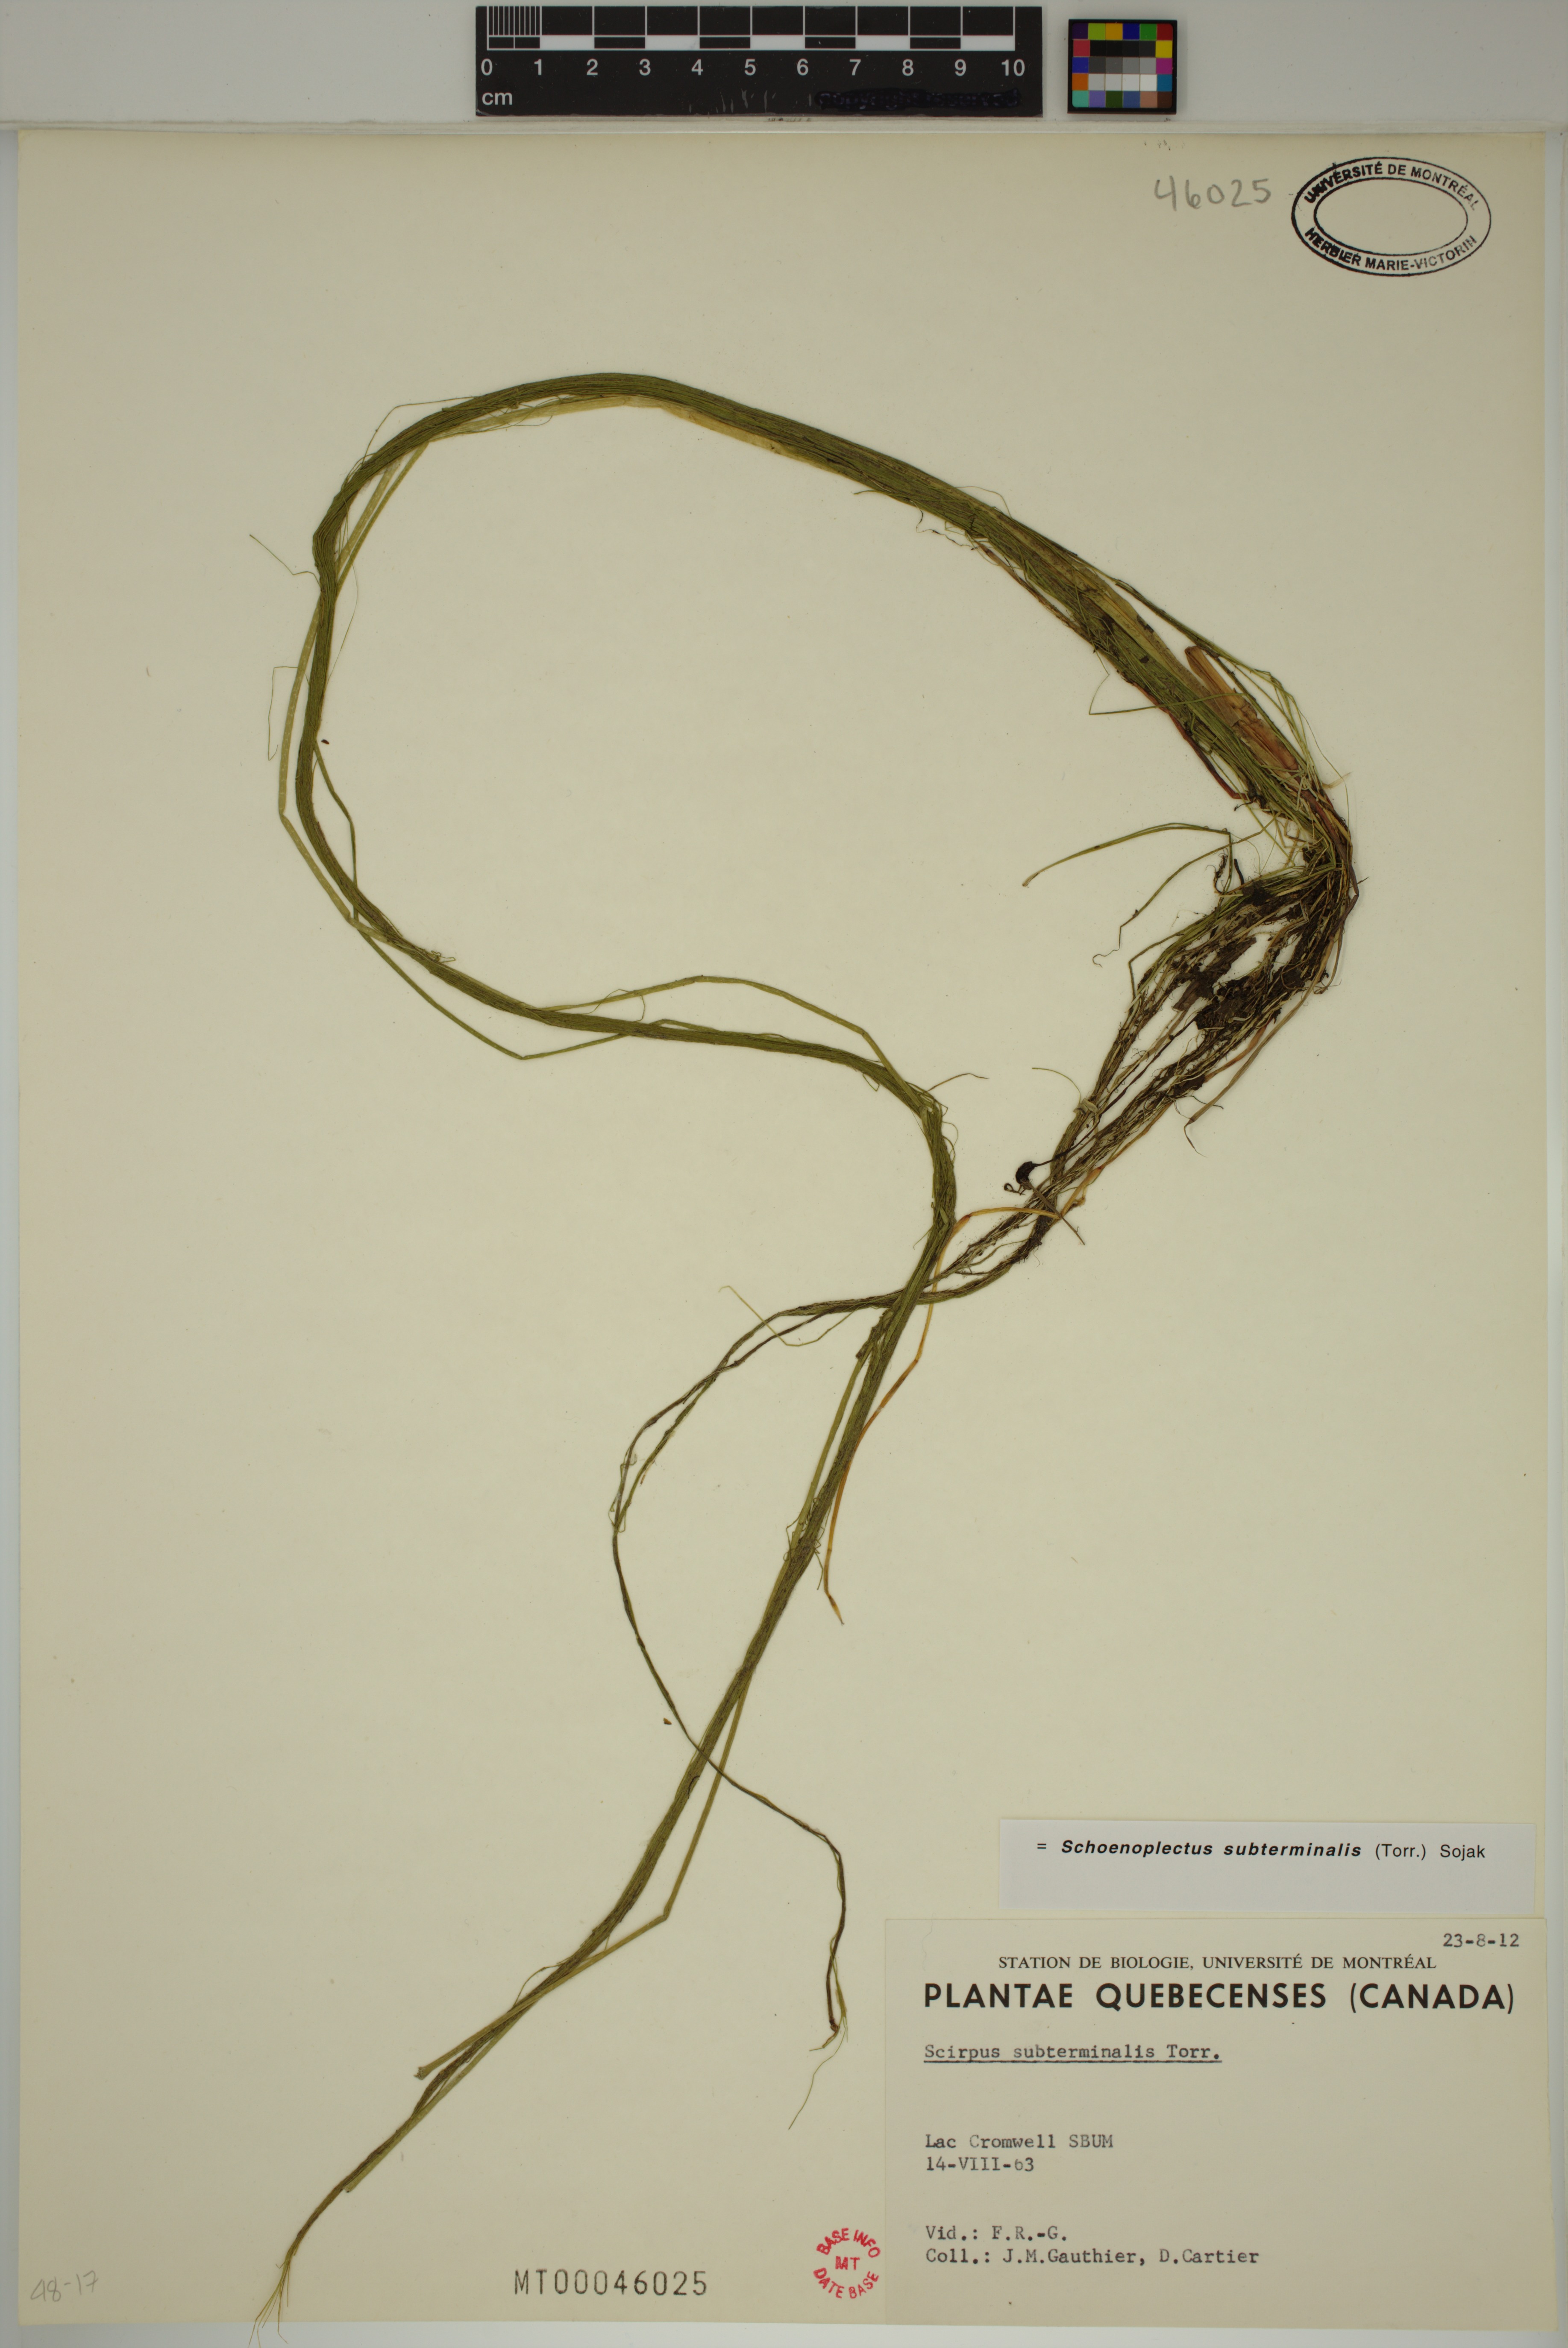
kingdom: Plantae
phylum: Tracheophyta
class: Liliopsida
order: Poales
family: Cyperaceae
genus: Schoenoplectus
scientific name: Schoenoplectus subterminalis
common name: Swaying bulrush
